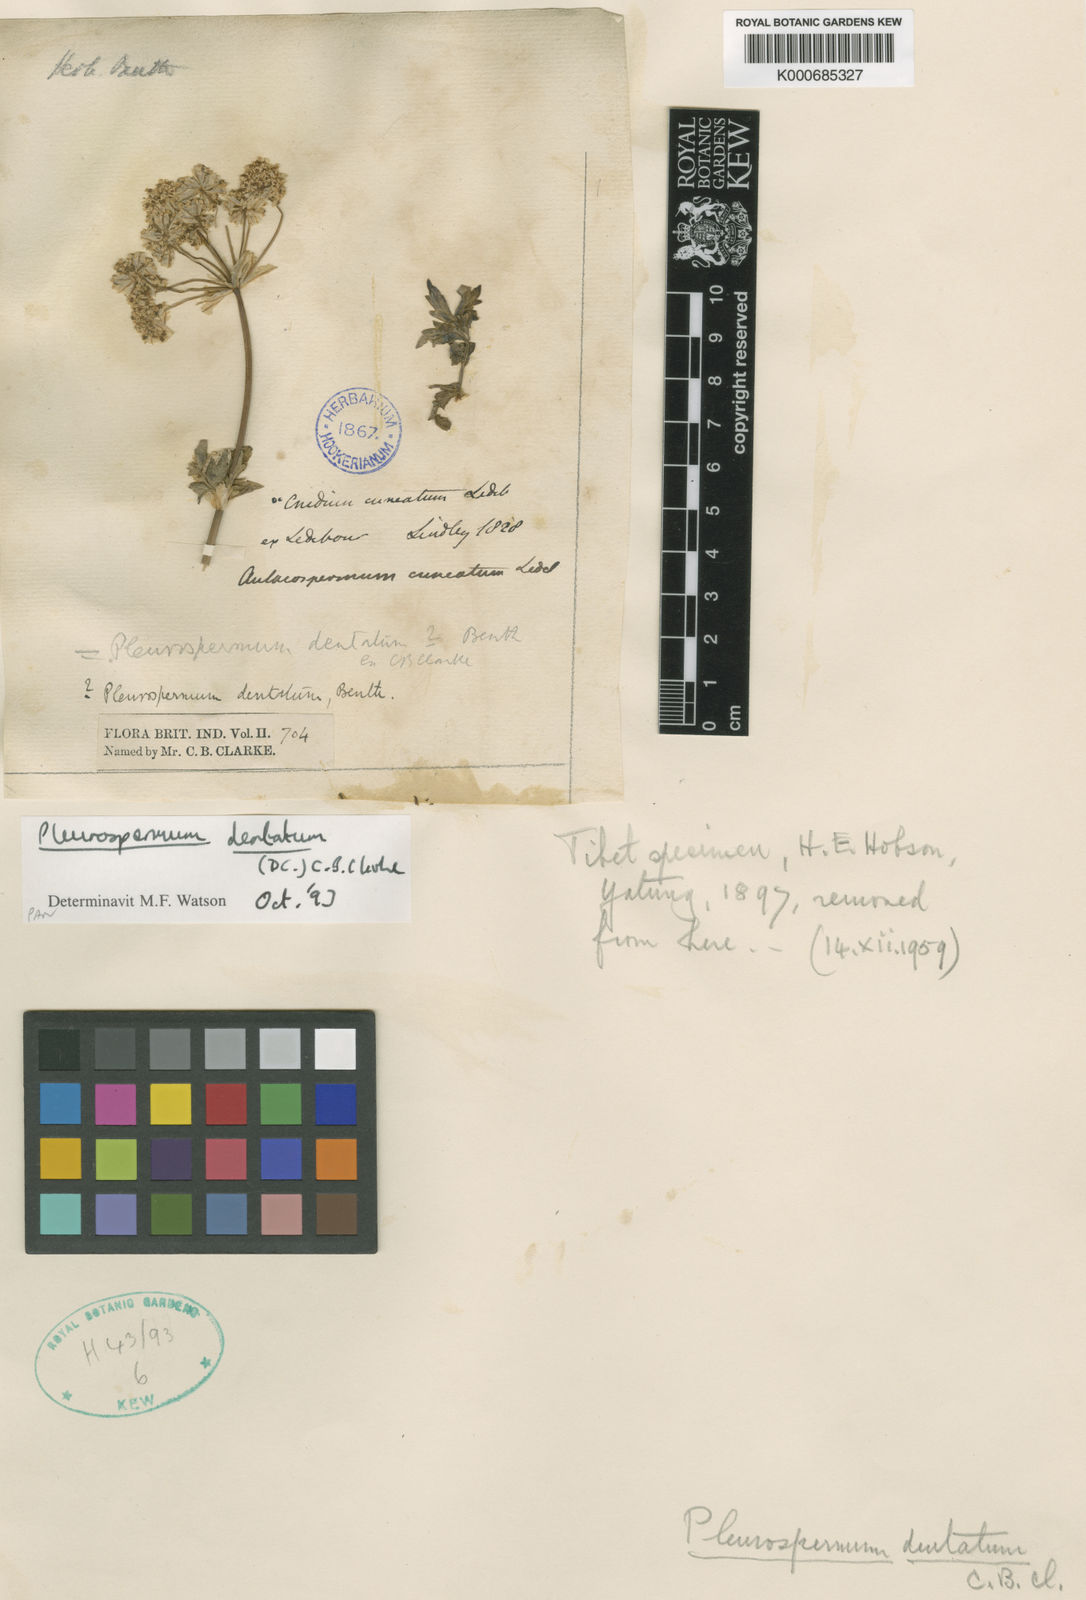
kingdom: Plantae
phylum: Tracheophyta
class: Magnoliopsida
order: Apiales
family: Apiaceae
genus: Hymenidium
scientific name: Hymenidium dentatum
